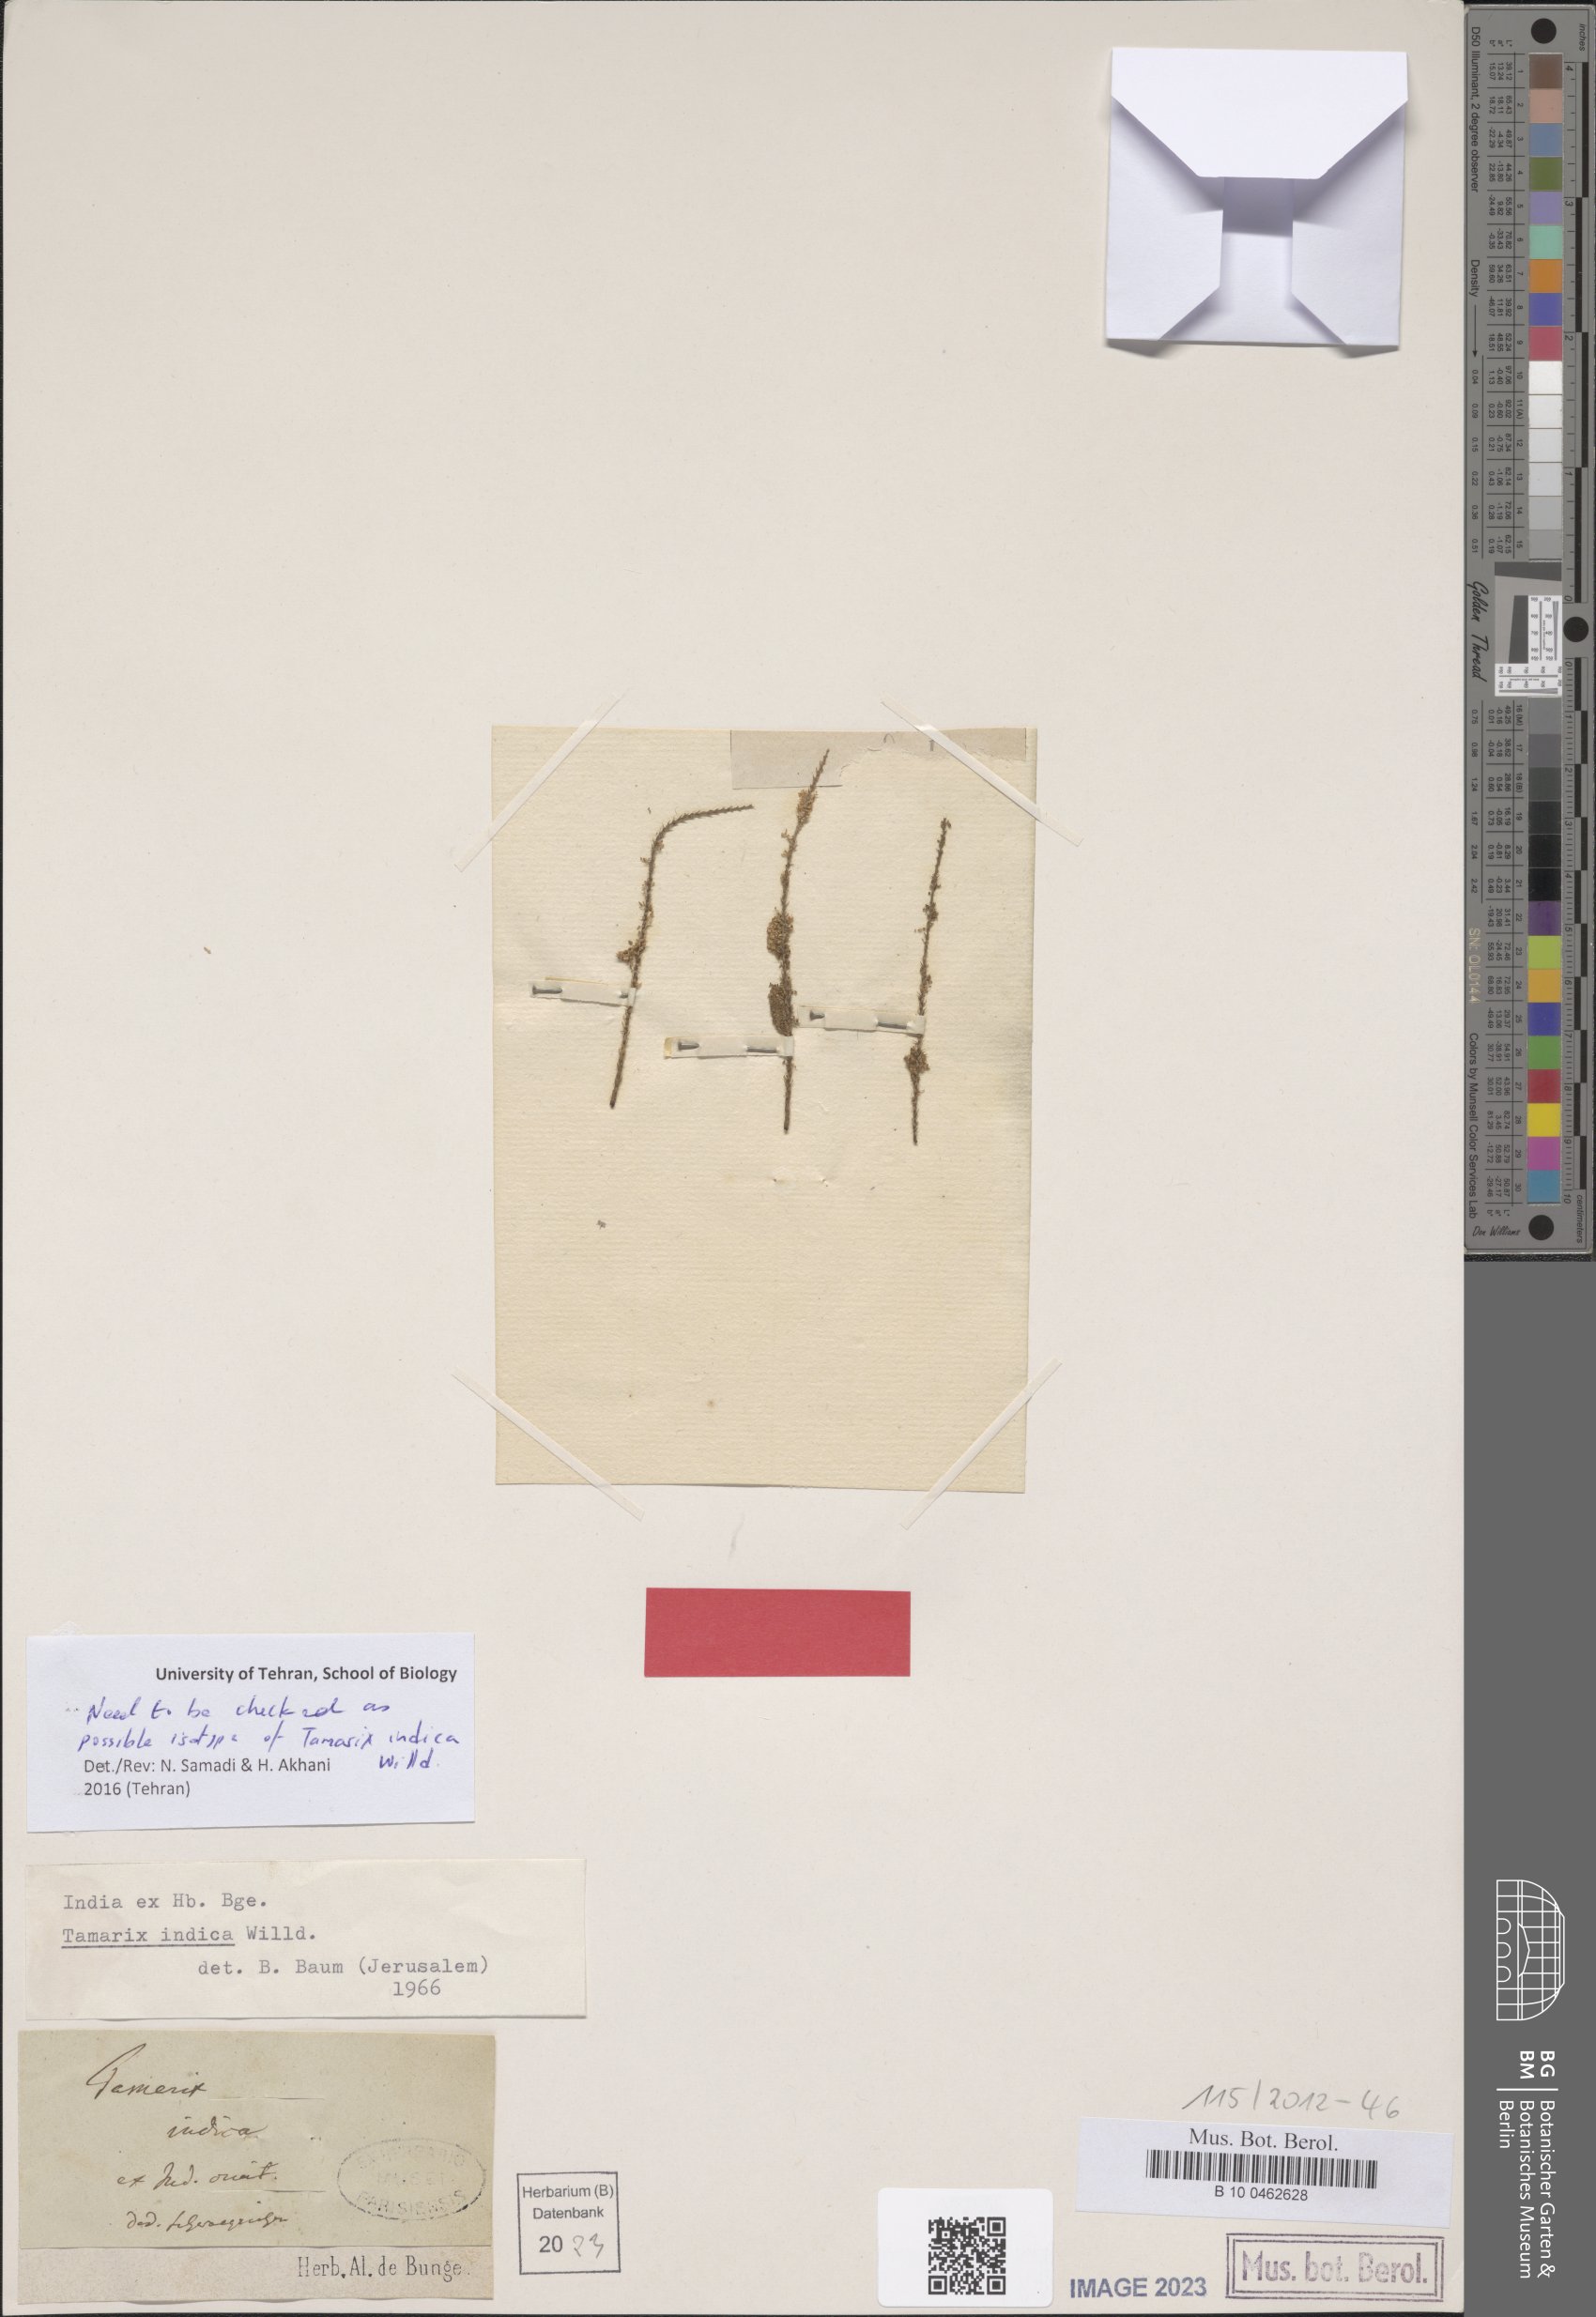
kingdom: Plantae
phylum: Tracheophyta
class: Magnoliopsida
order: Caryophyllales
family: Tamaricaceae
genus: Tamarix
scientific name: Tamarix indica
